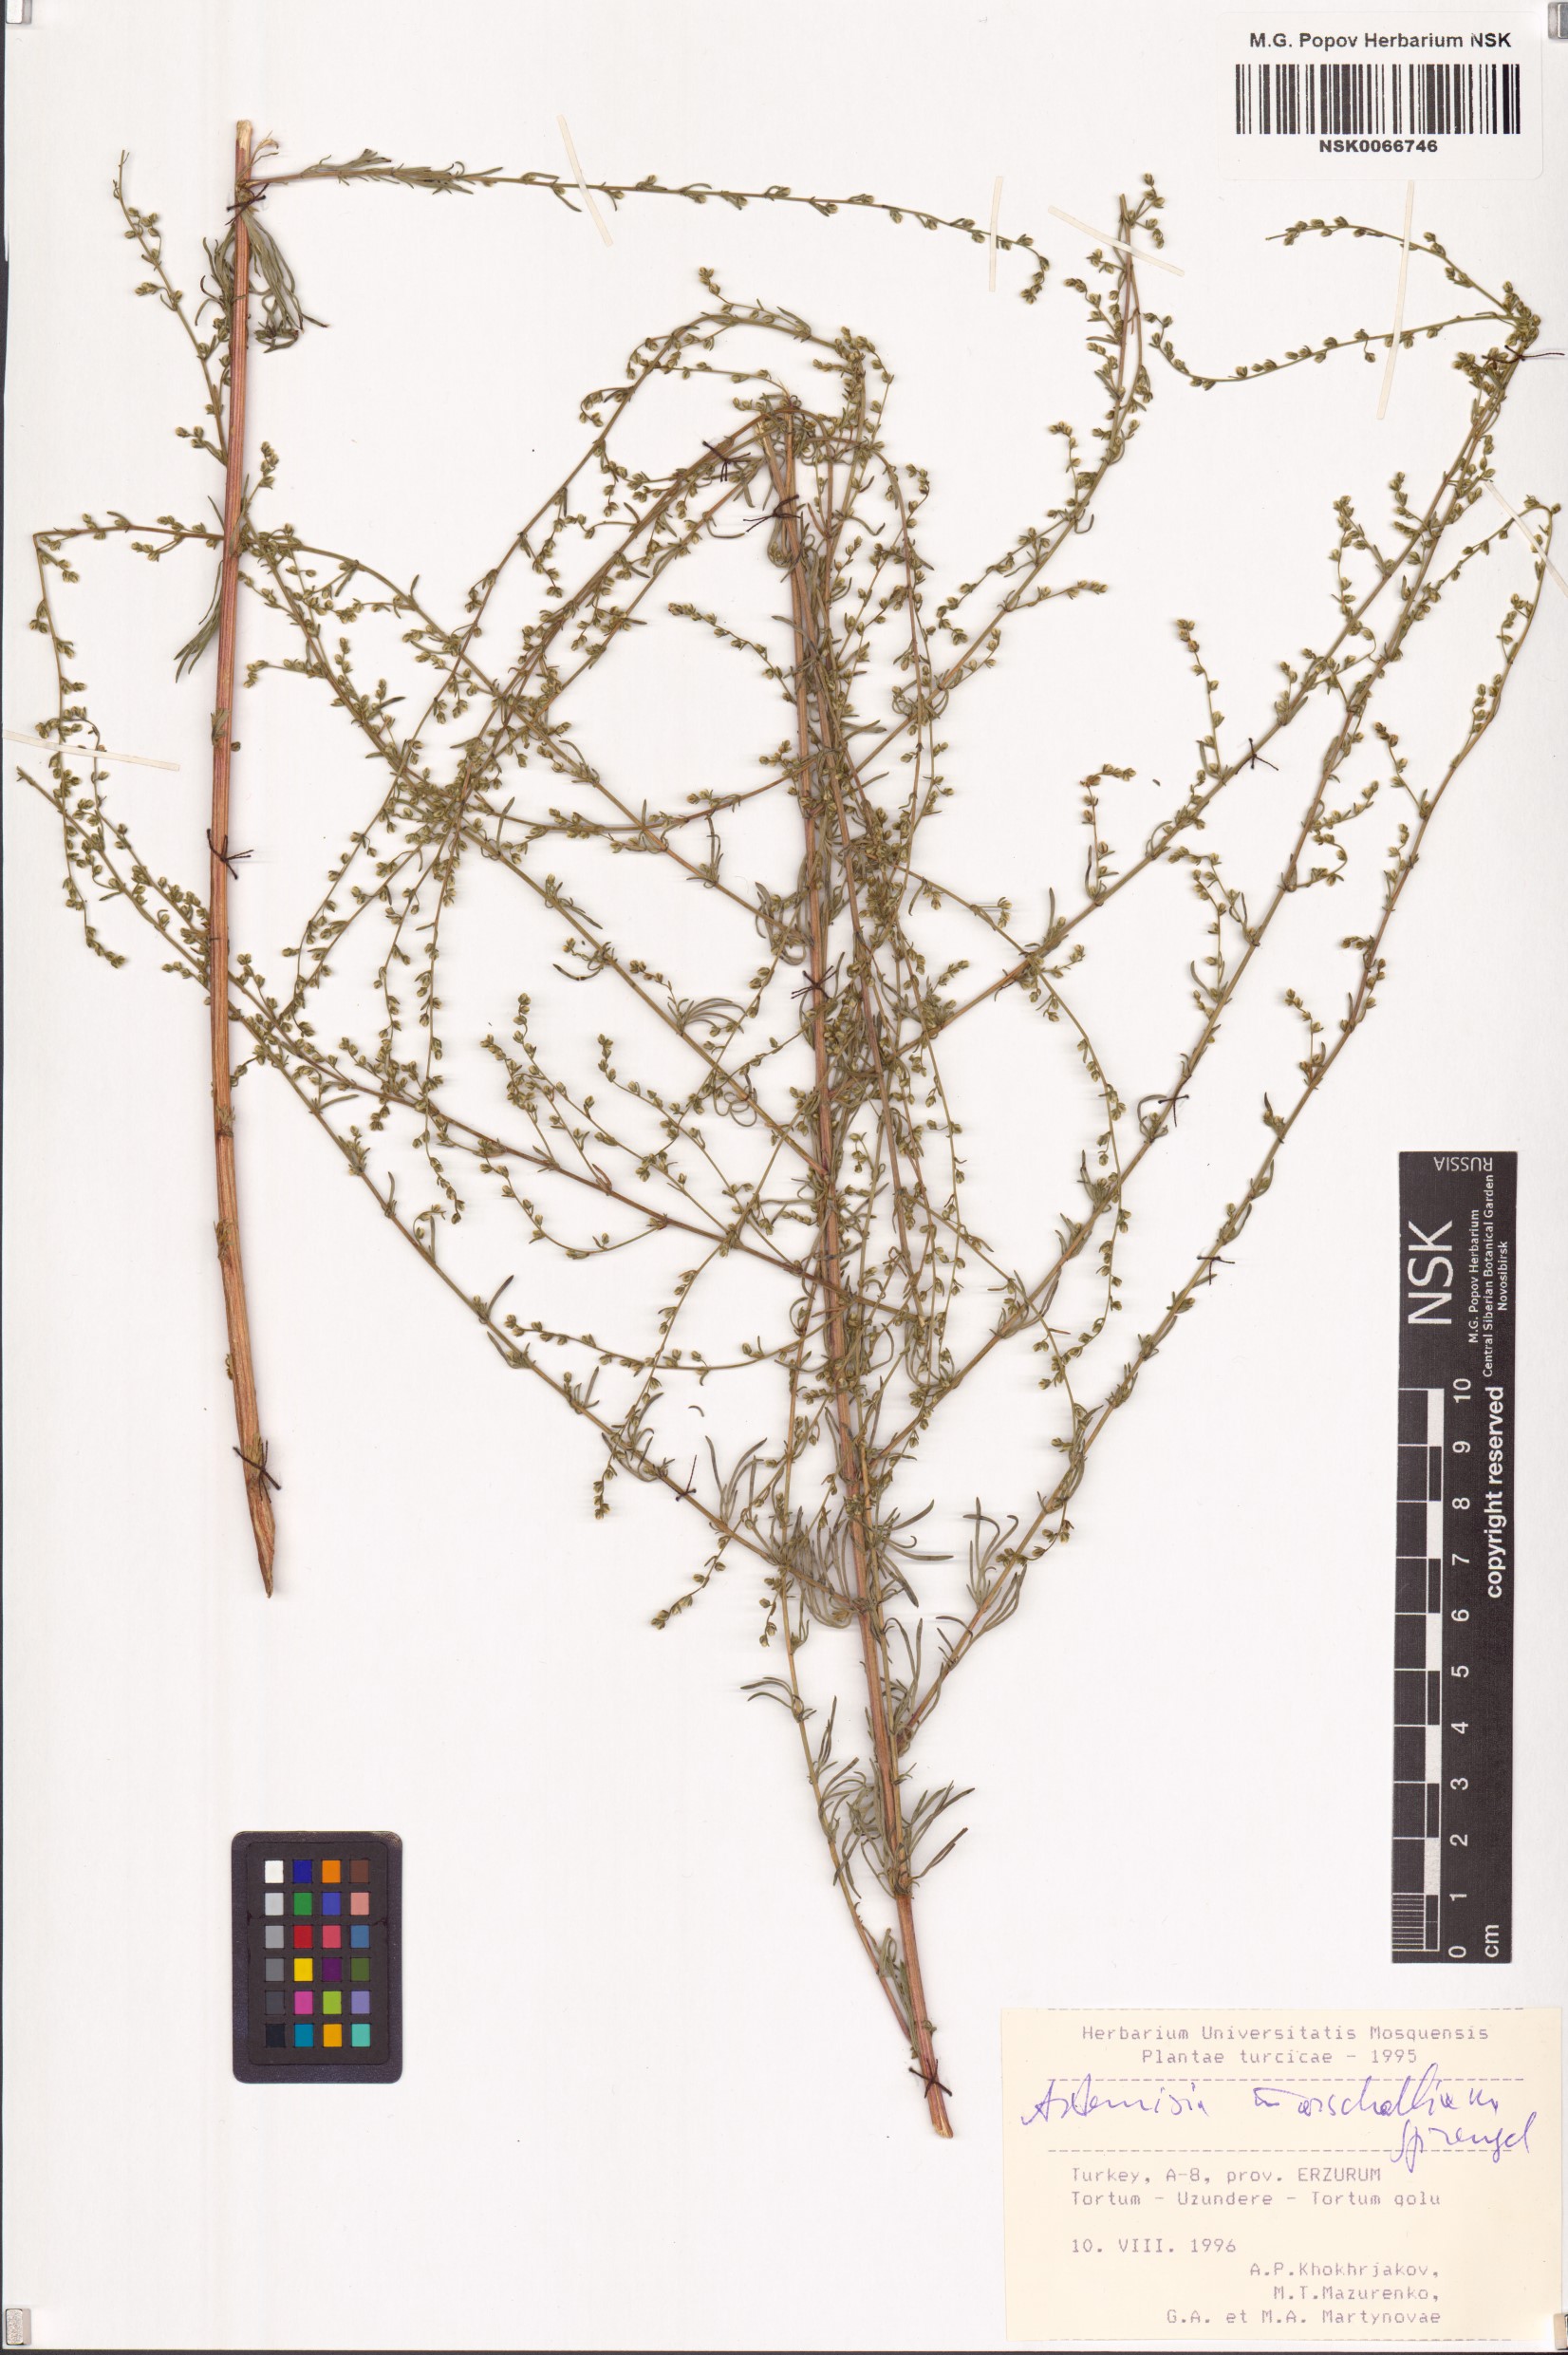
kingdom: Plantae
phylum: Tracheophyta
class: Magnoliopsida
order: Asterales
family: Asteraceae
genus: Artemisia
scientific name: Artemisia marschalliana
